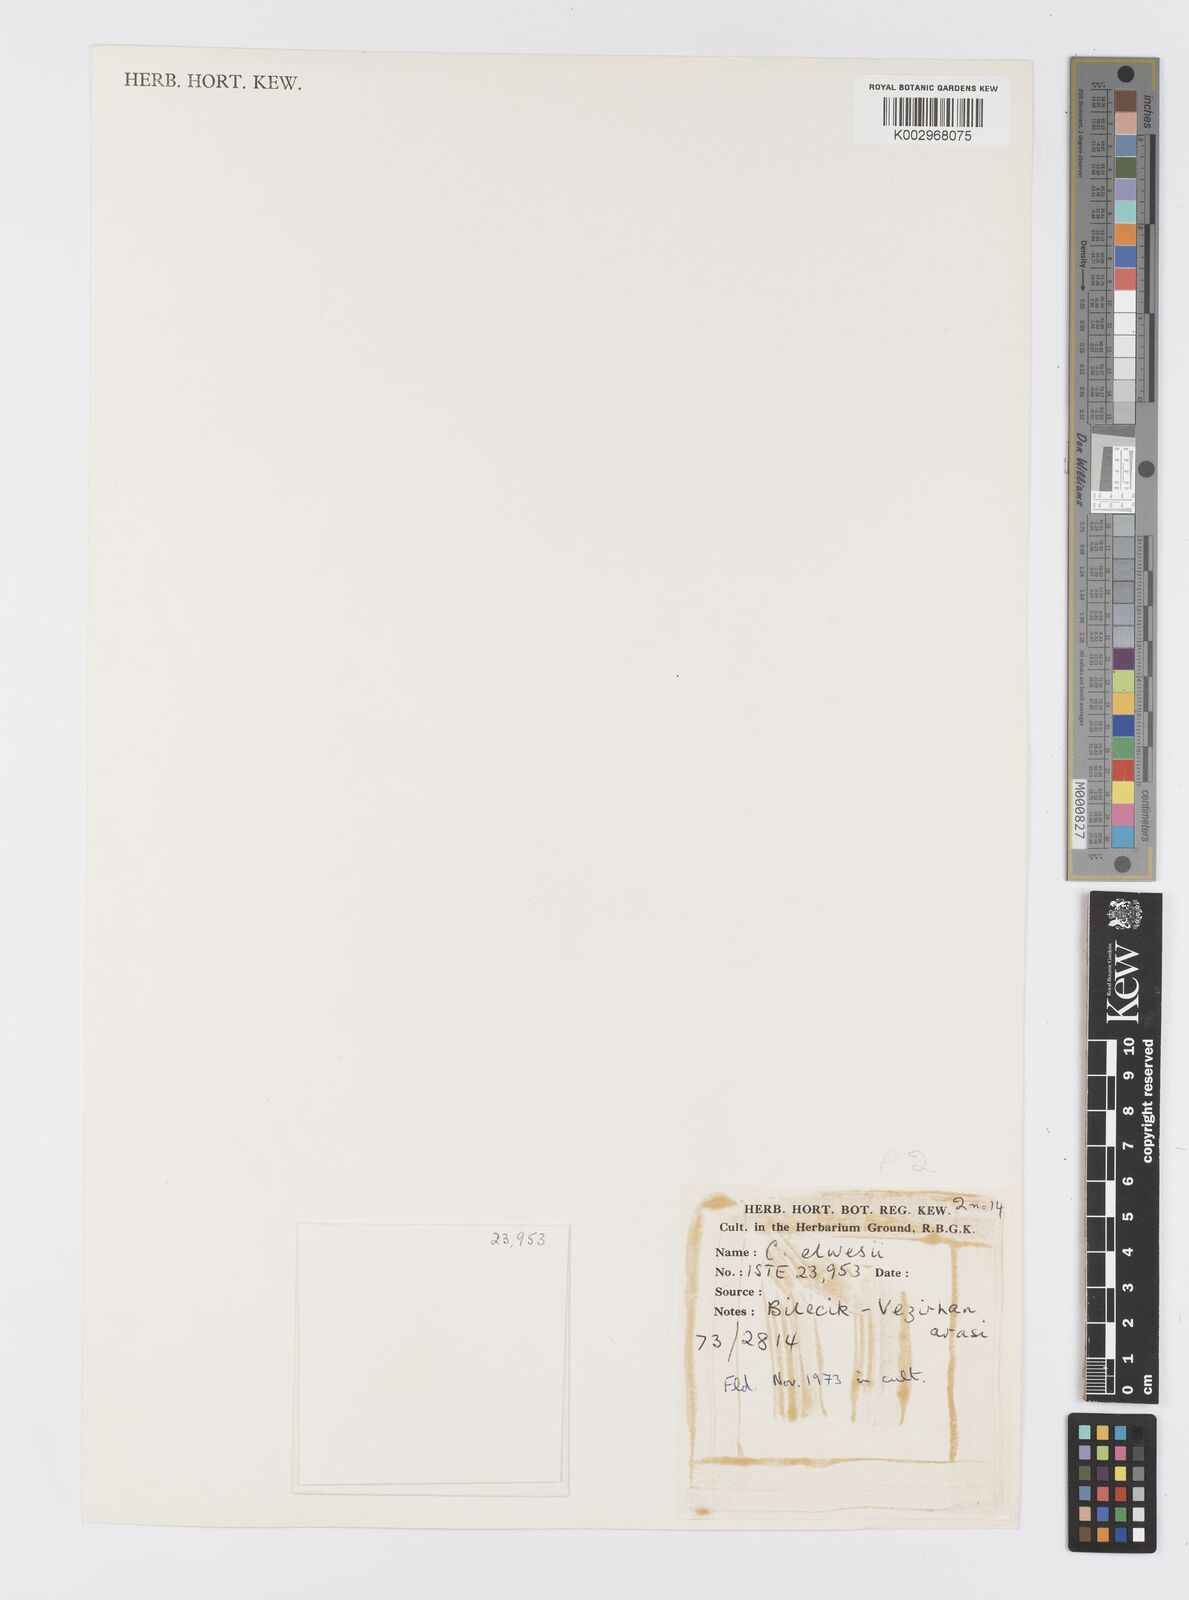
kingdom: Plantae
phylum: Tracheophyta
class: Liliopsida
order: Asparagales
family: Iridaceae
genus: Crocus
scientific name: Crocus
